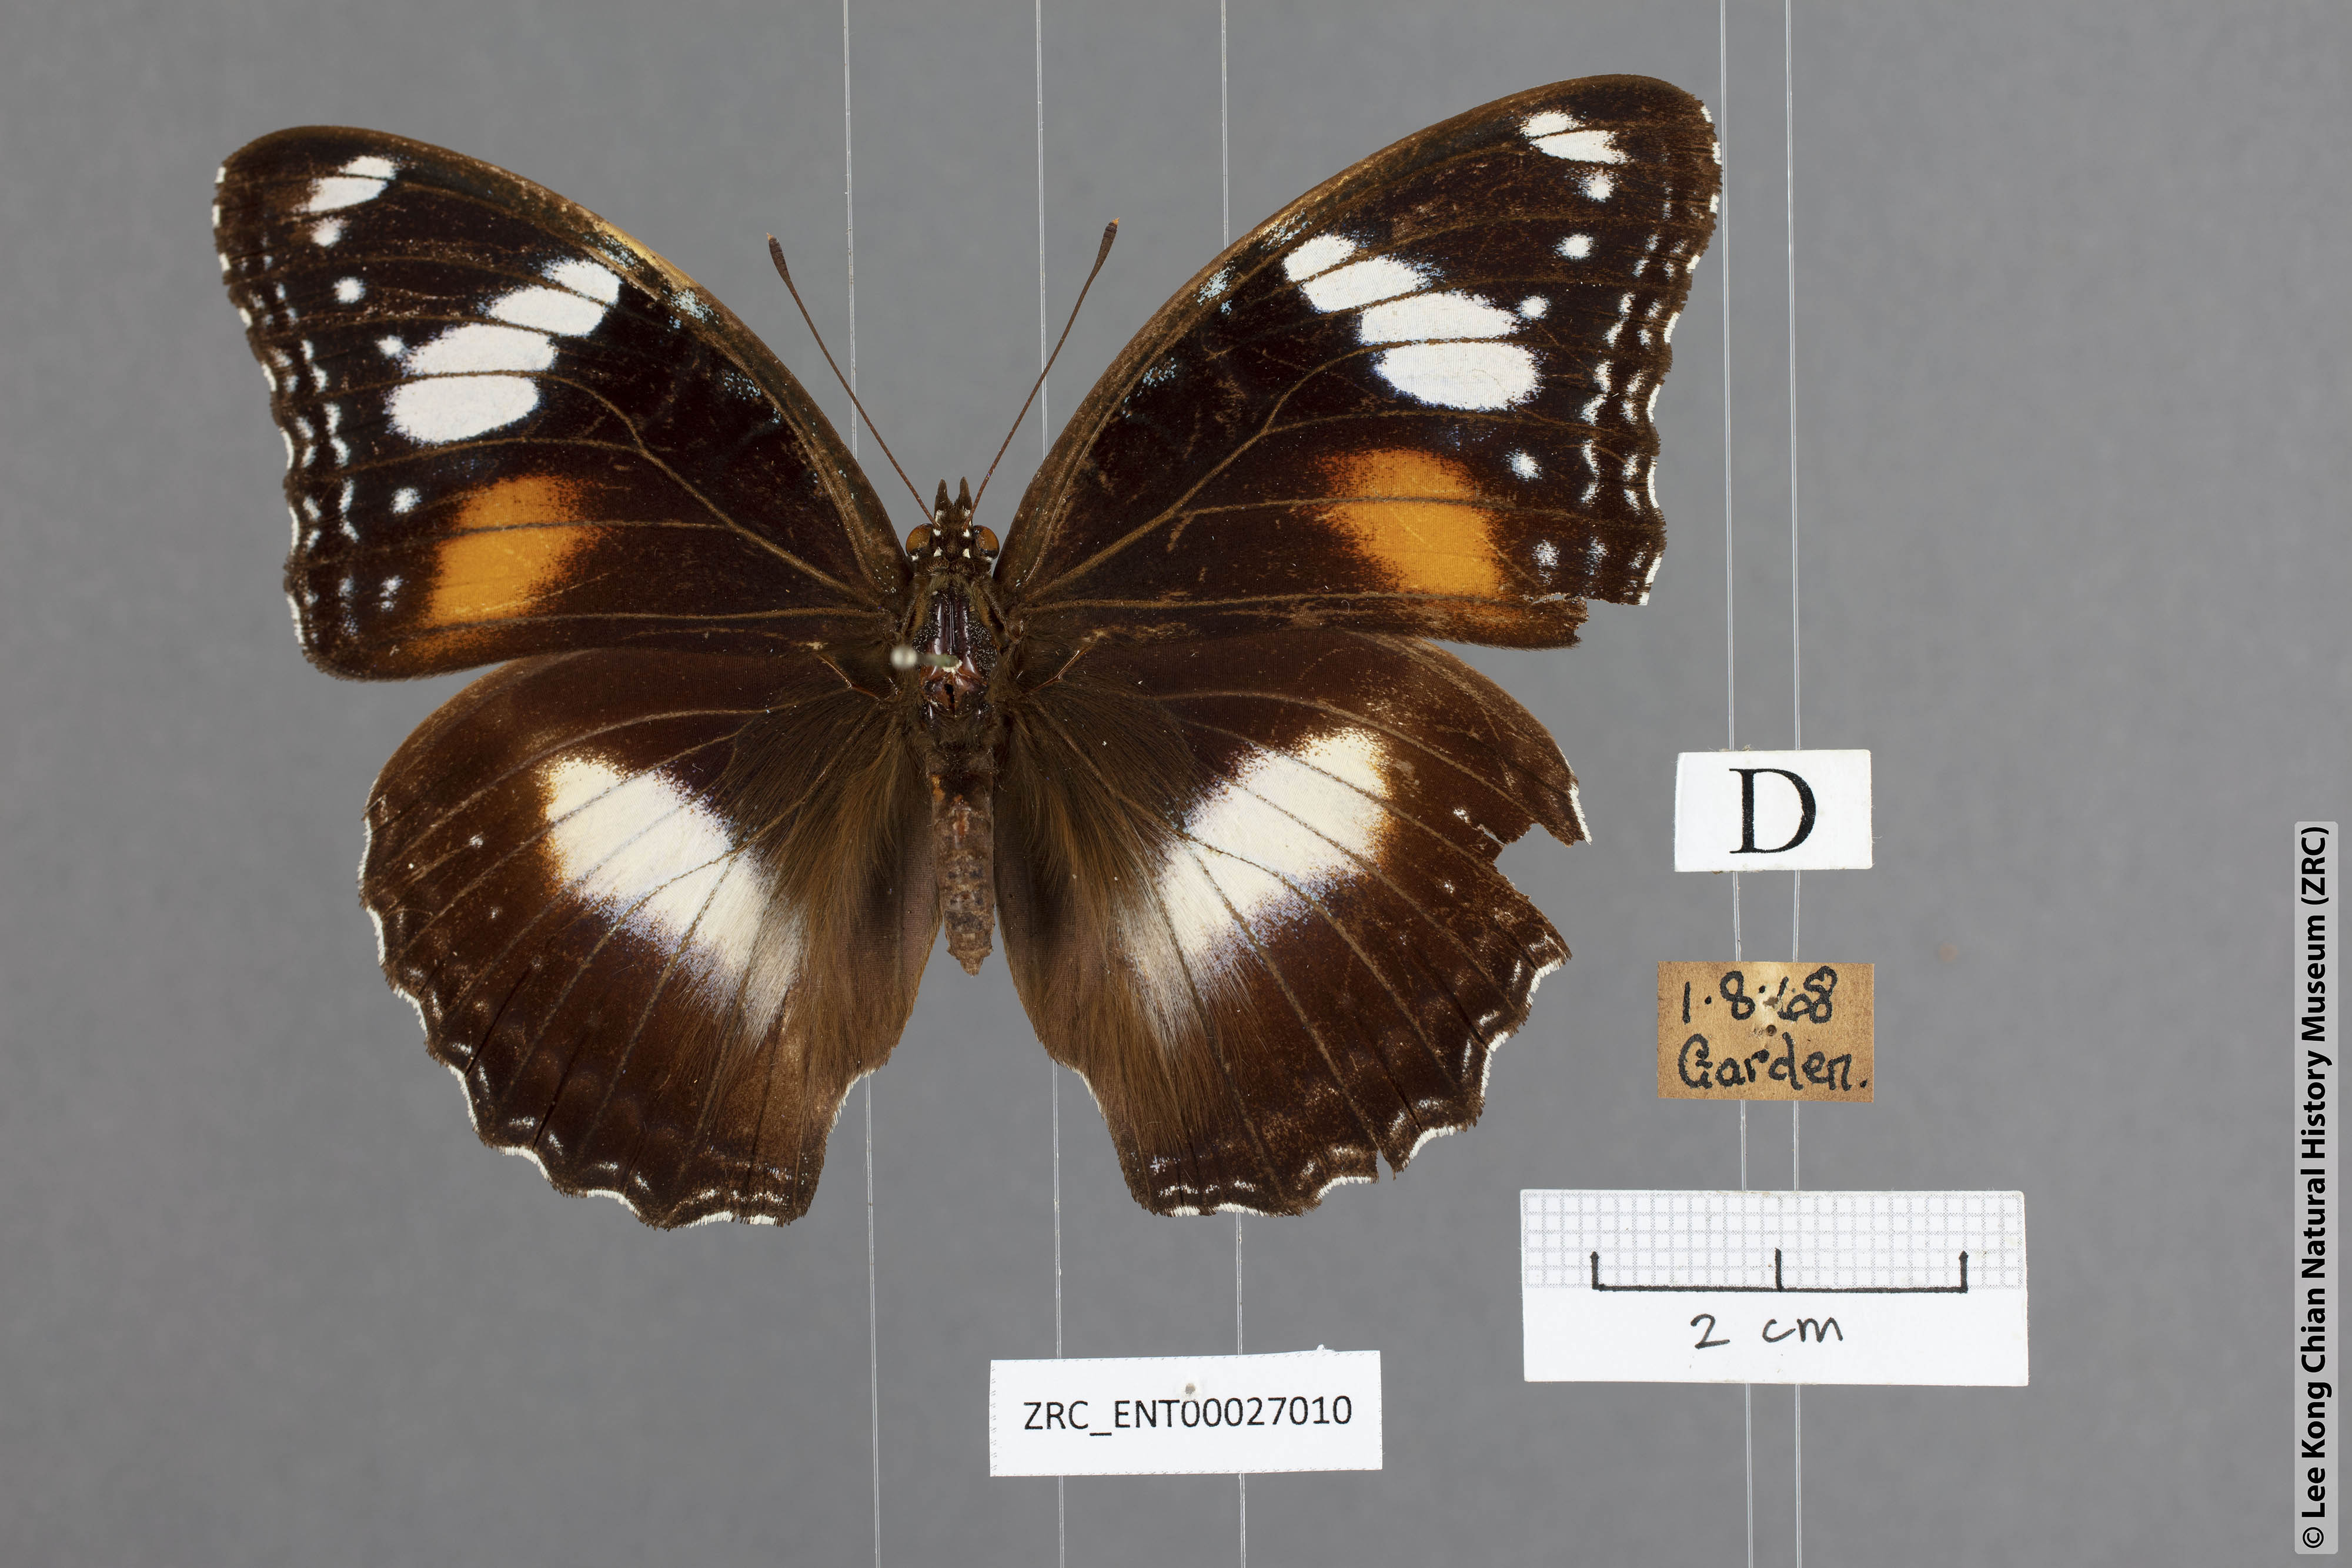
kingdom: Animalia
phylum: Arthropoda
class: Insecta
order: Lepidoptera
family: Nymphalidae
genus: Hypolimnas
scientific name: Hypolimnas bolina
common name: Great eggfly
